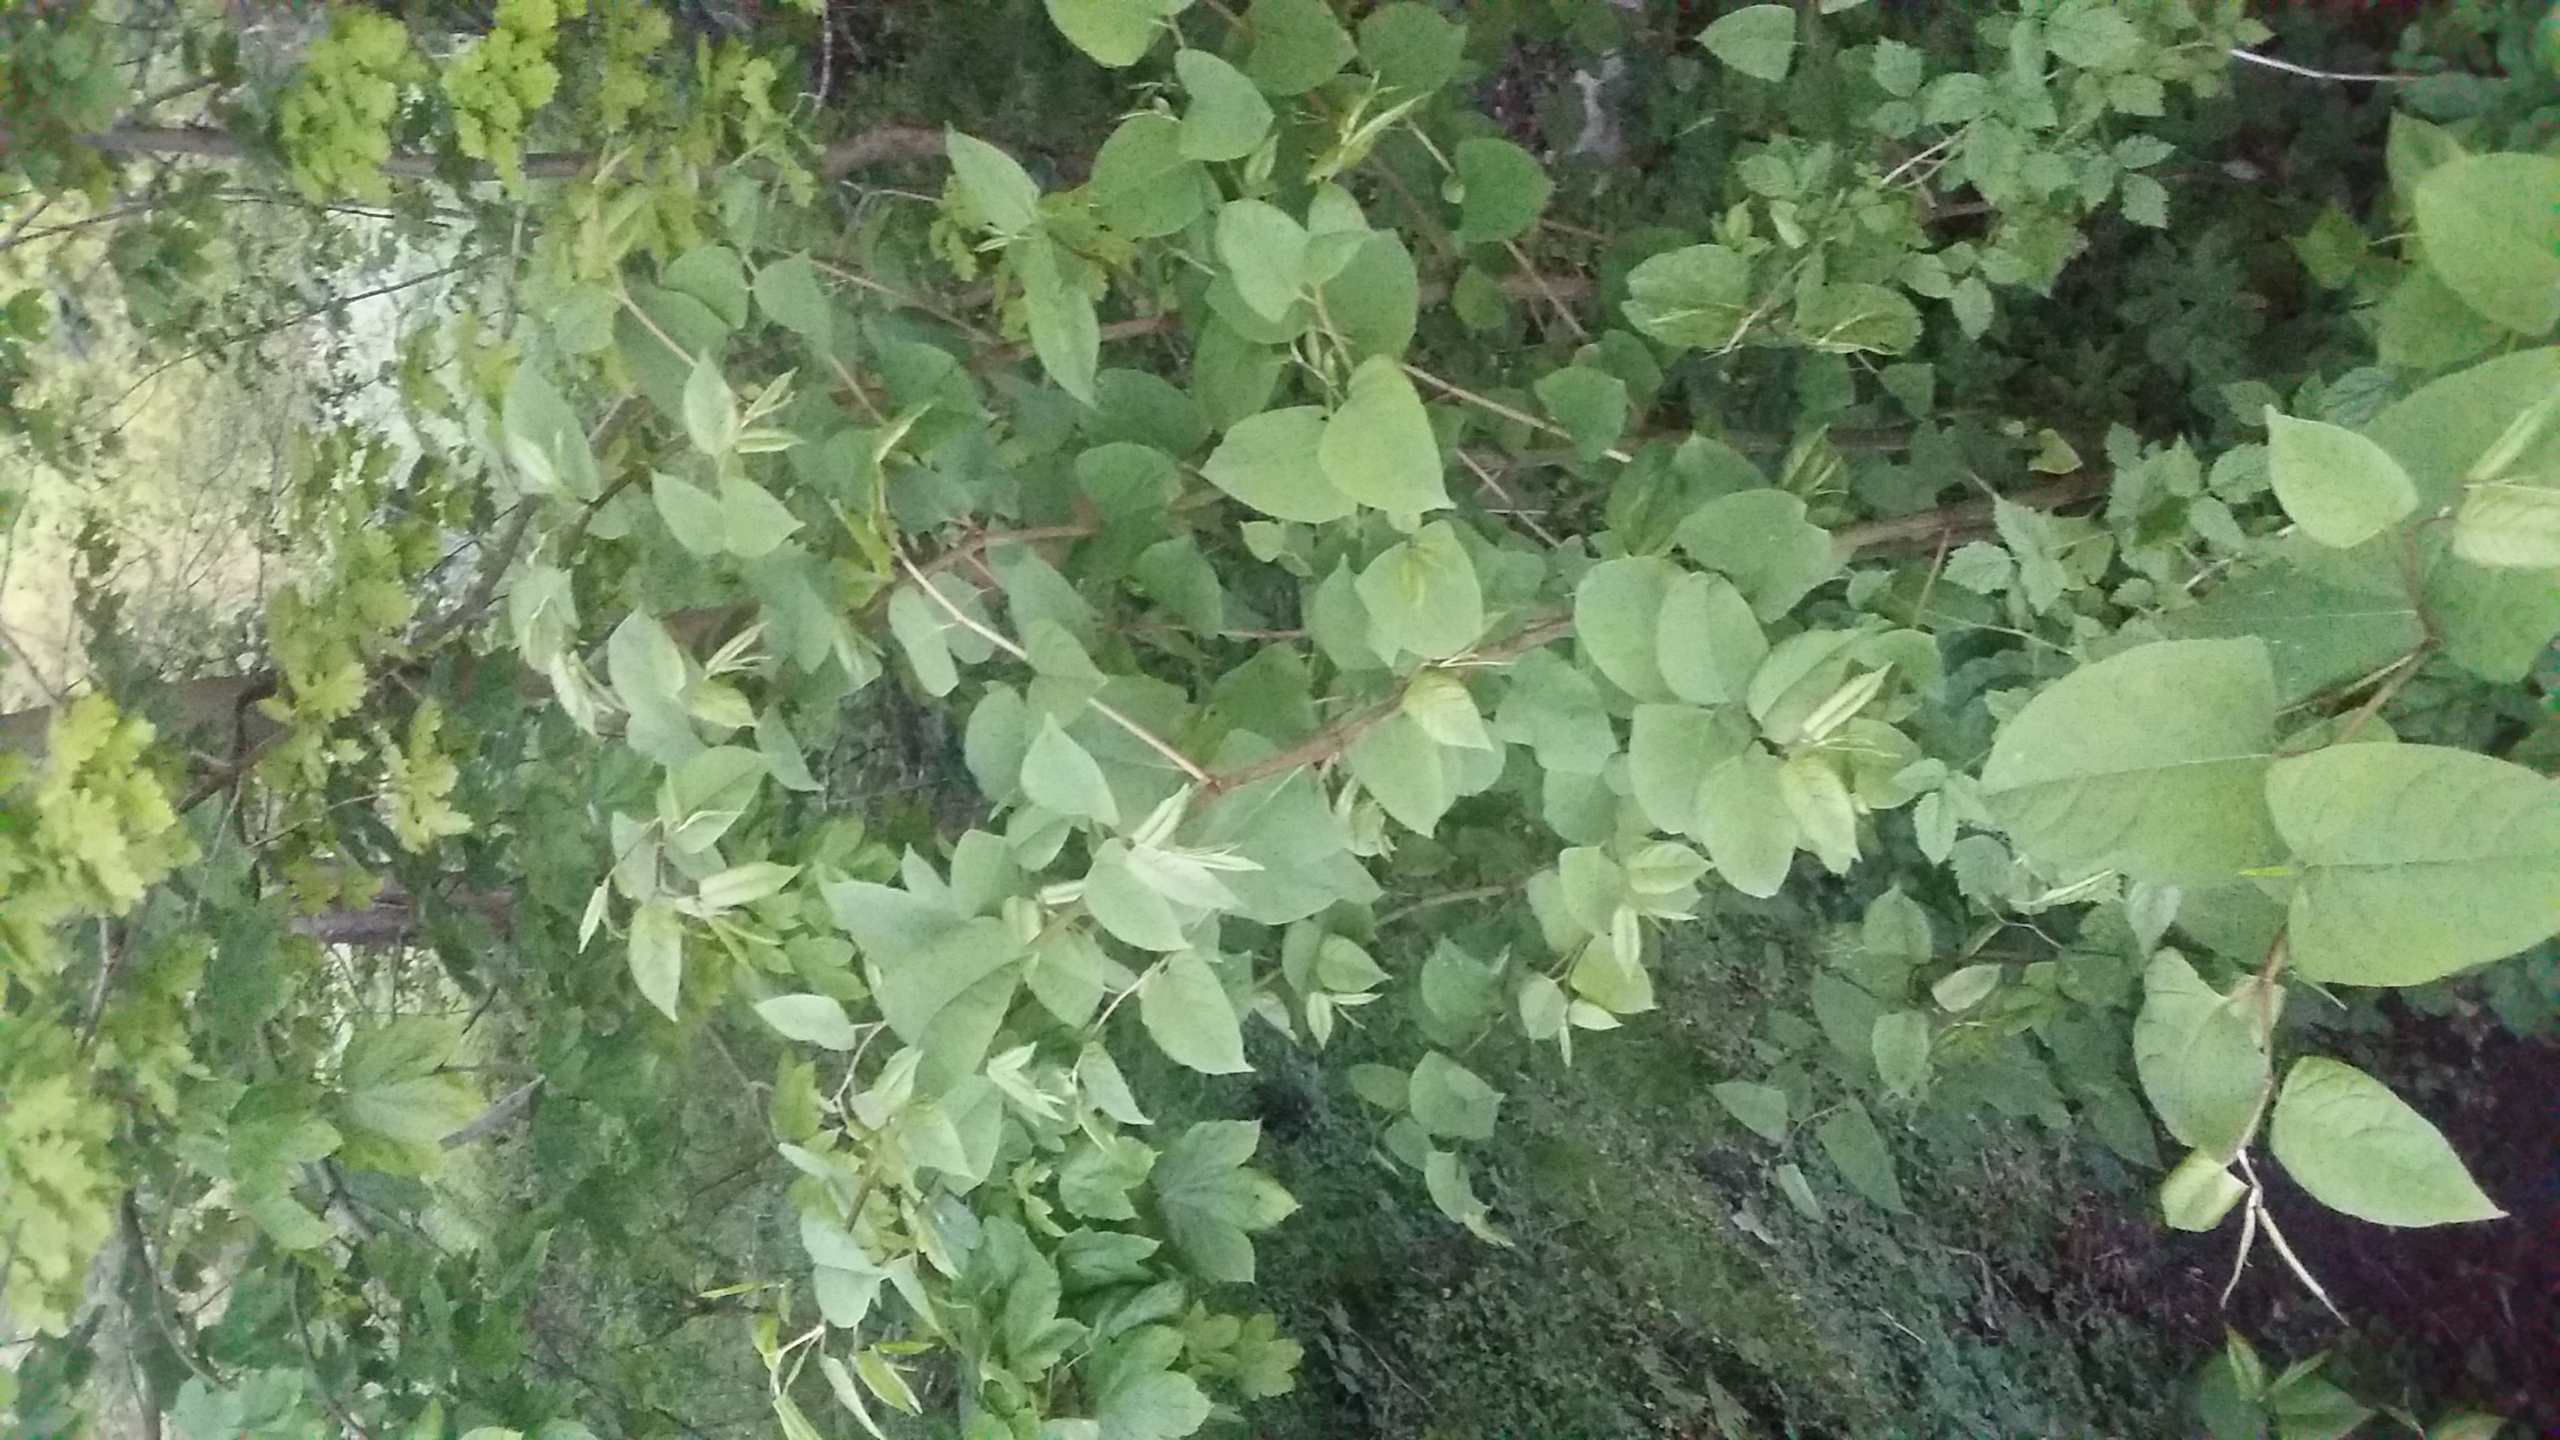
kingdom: Plantae
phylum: Tracheophyta
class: Magnoliopsida
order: Caryophyllales
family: Polygonaceae
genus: Reynoutria
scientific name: Reynoutria japonica
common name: Japan-pileurt
